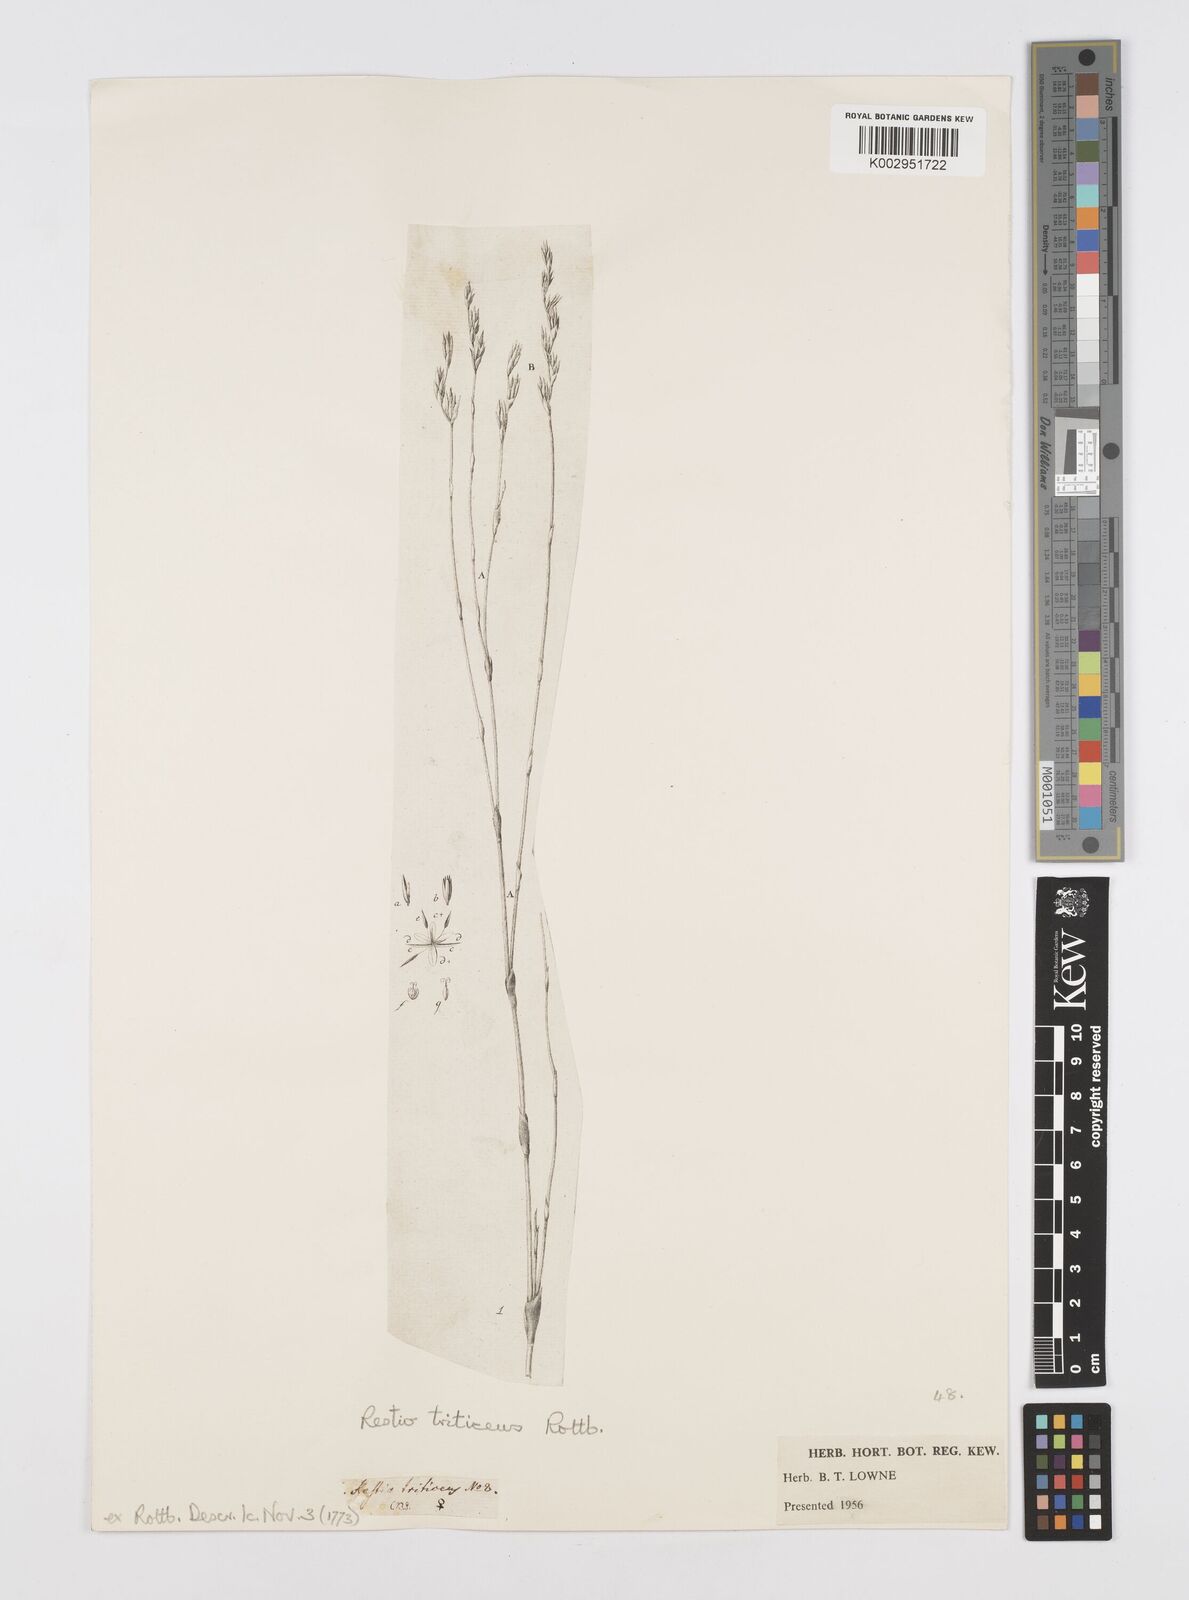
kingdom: Plantae
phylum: Tracheophyta
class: Liliopsida
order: Poales
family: Restionaceae
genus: Restio
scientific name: Restio triticeus
